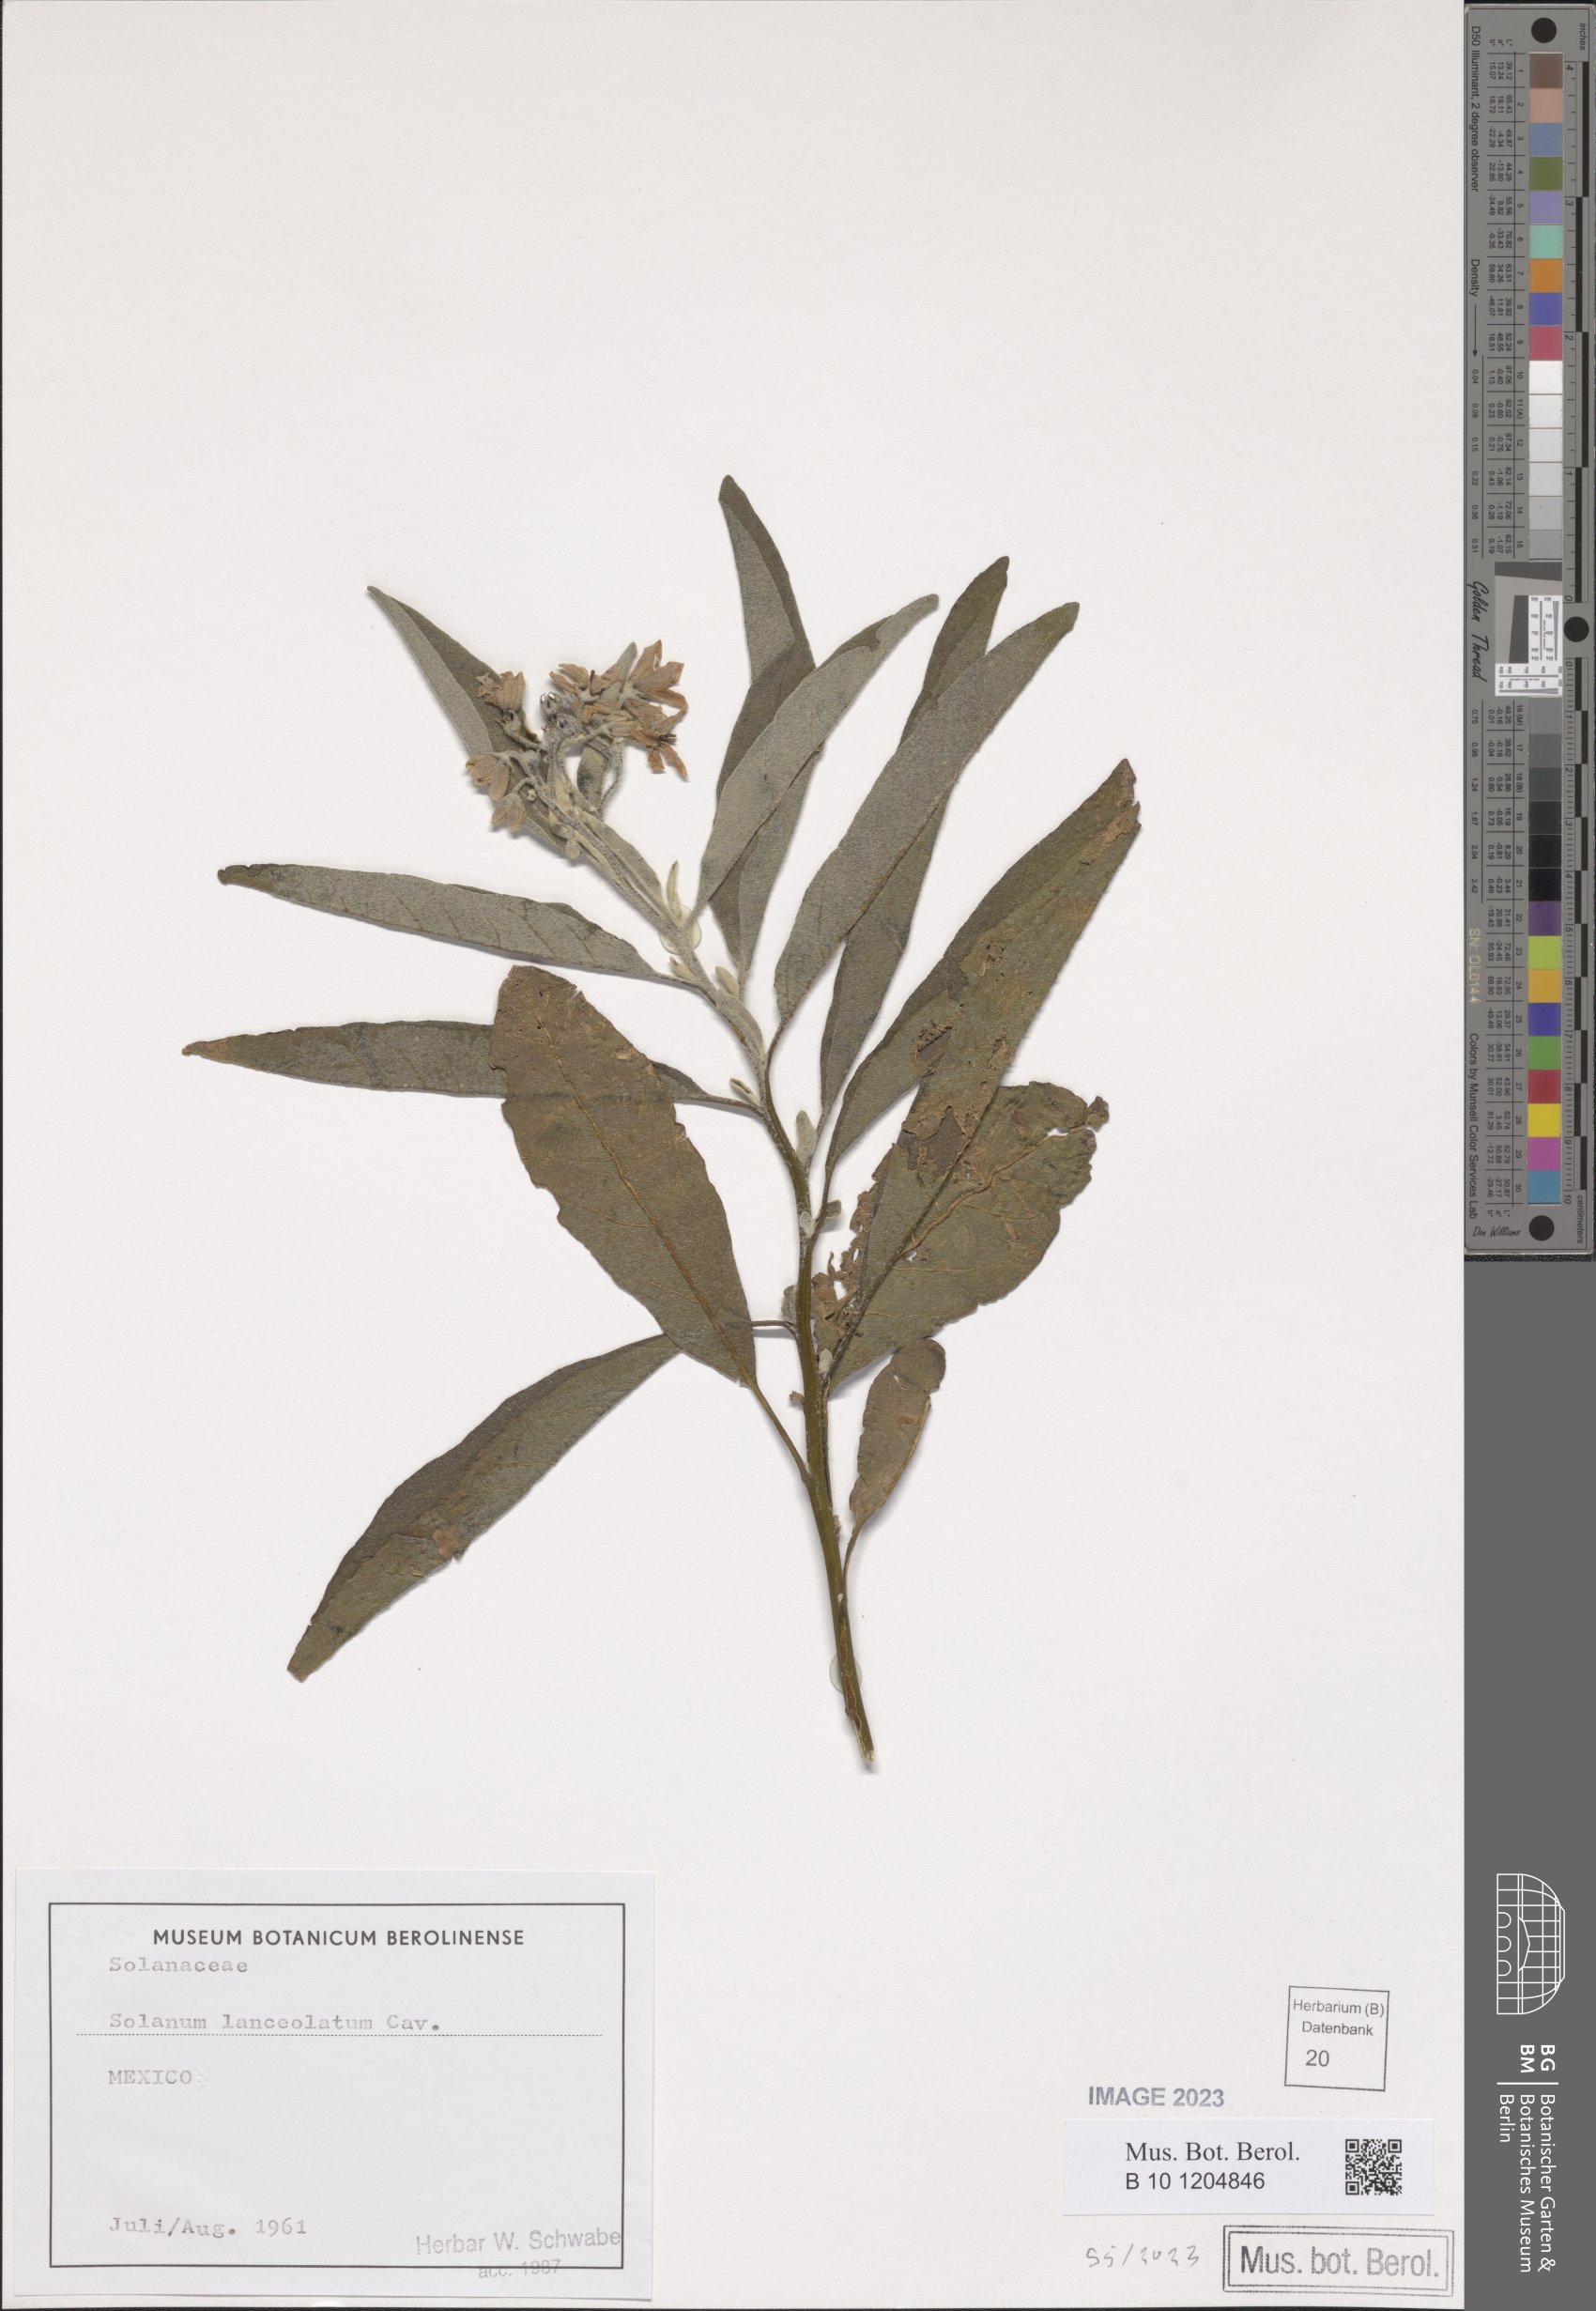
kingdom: Plantae
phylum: Tracheophyta
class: Magnoliopsida
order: Solanales
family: Solanaceae
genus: Solanum
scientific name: Solanum lanceolatum
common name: Orangeberry nightshade
